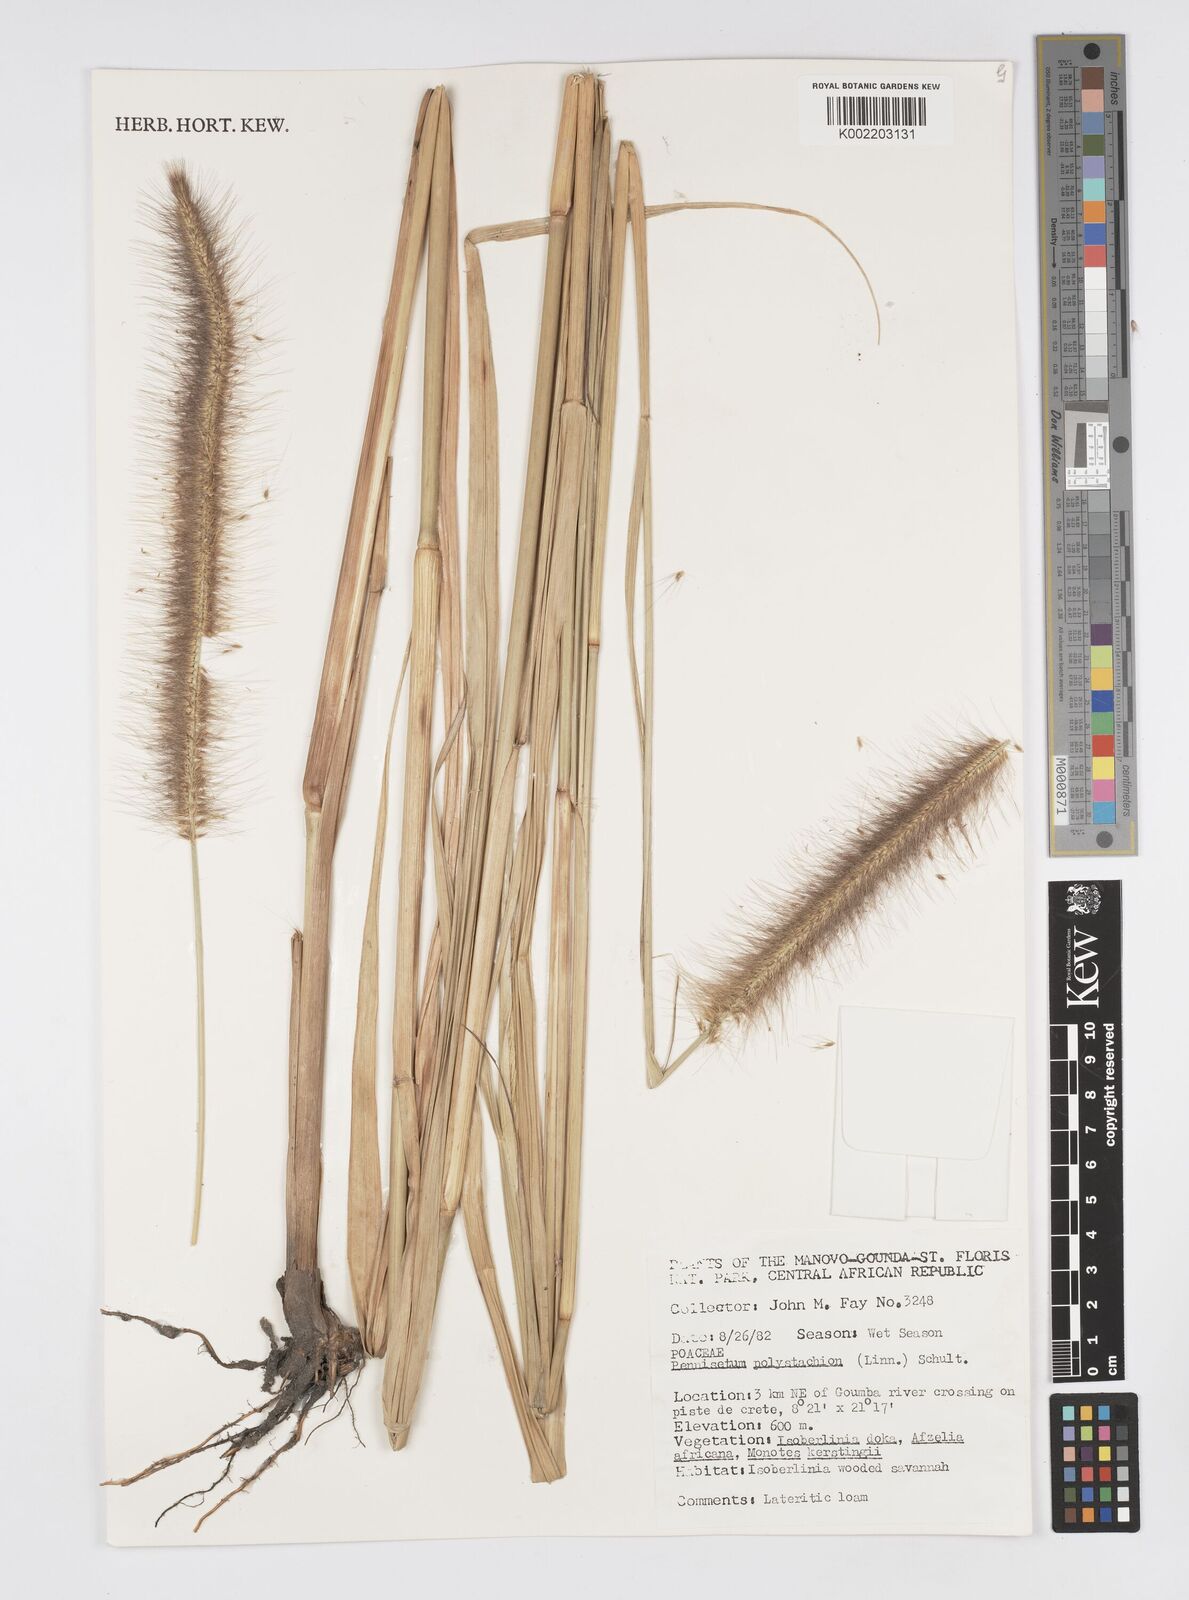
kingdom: Plantae
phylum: Tracheophyta
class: Liliopsida
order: Poales
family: Poaceae
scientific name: Poaceae
